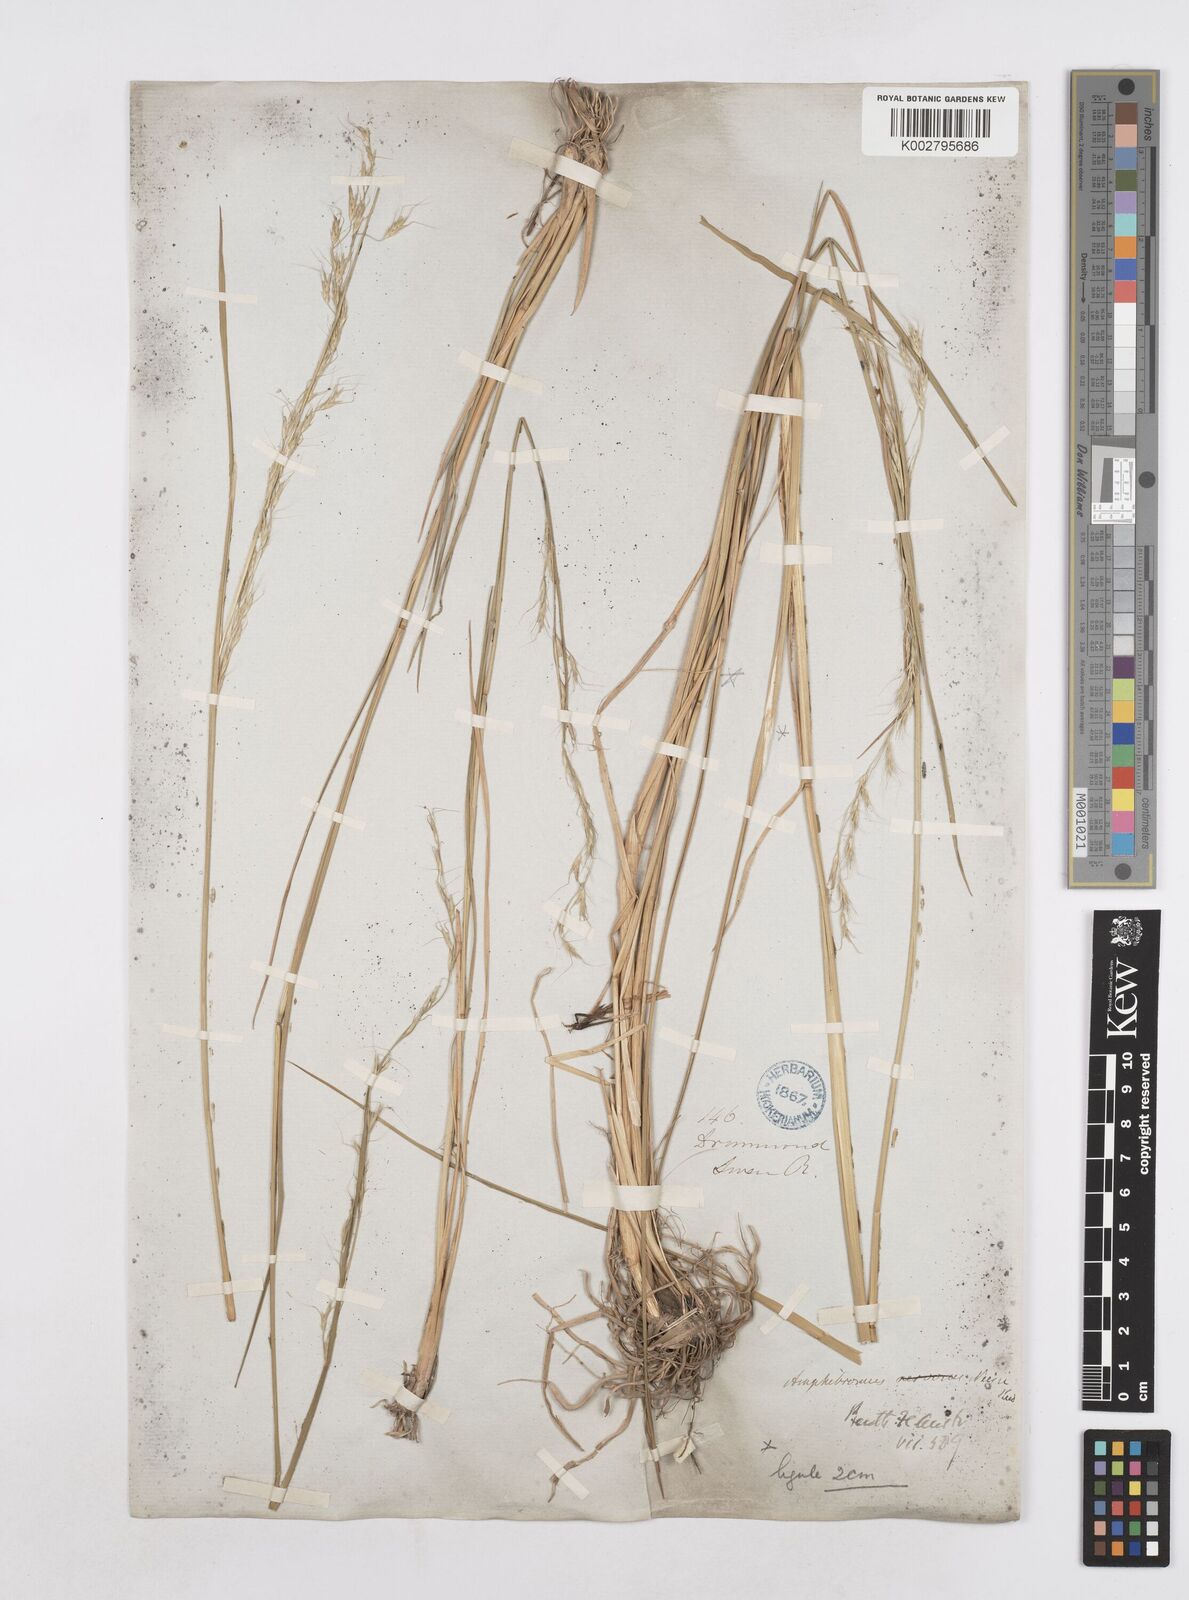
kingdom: Plantae
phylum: Tracheophyta
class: Liliopsida
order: Poales
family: Poaceae
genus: Amphibromus
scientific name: Amphibromus neesii
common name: Australian wallaby grass
